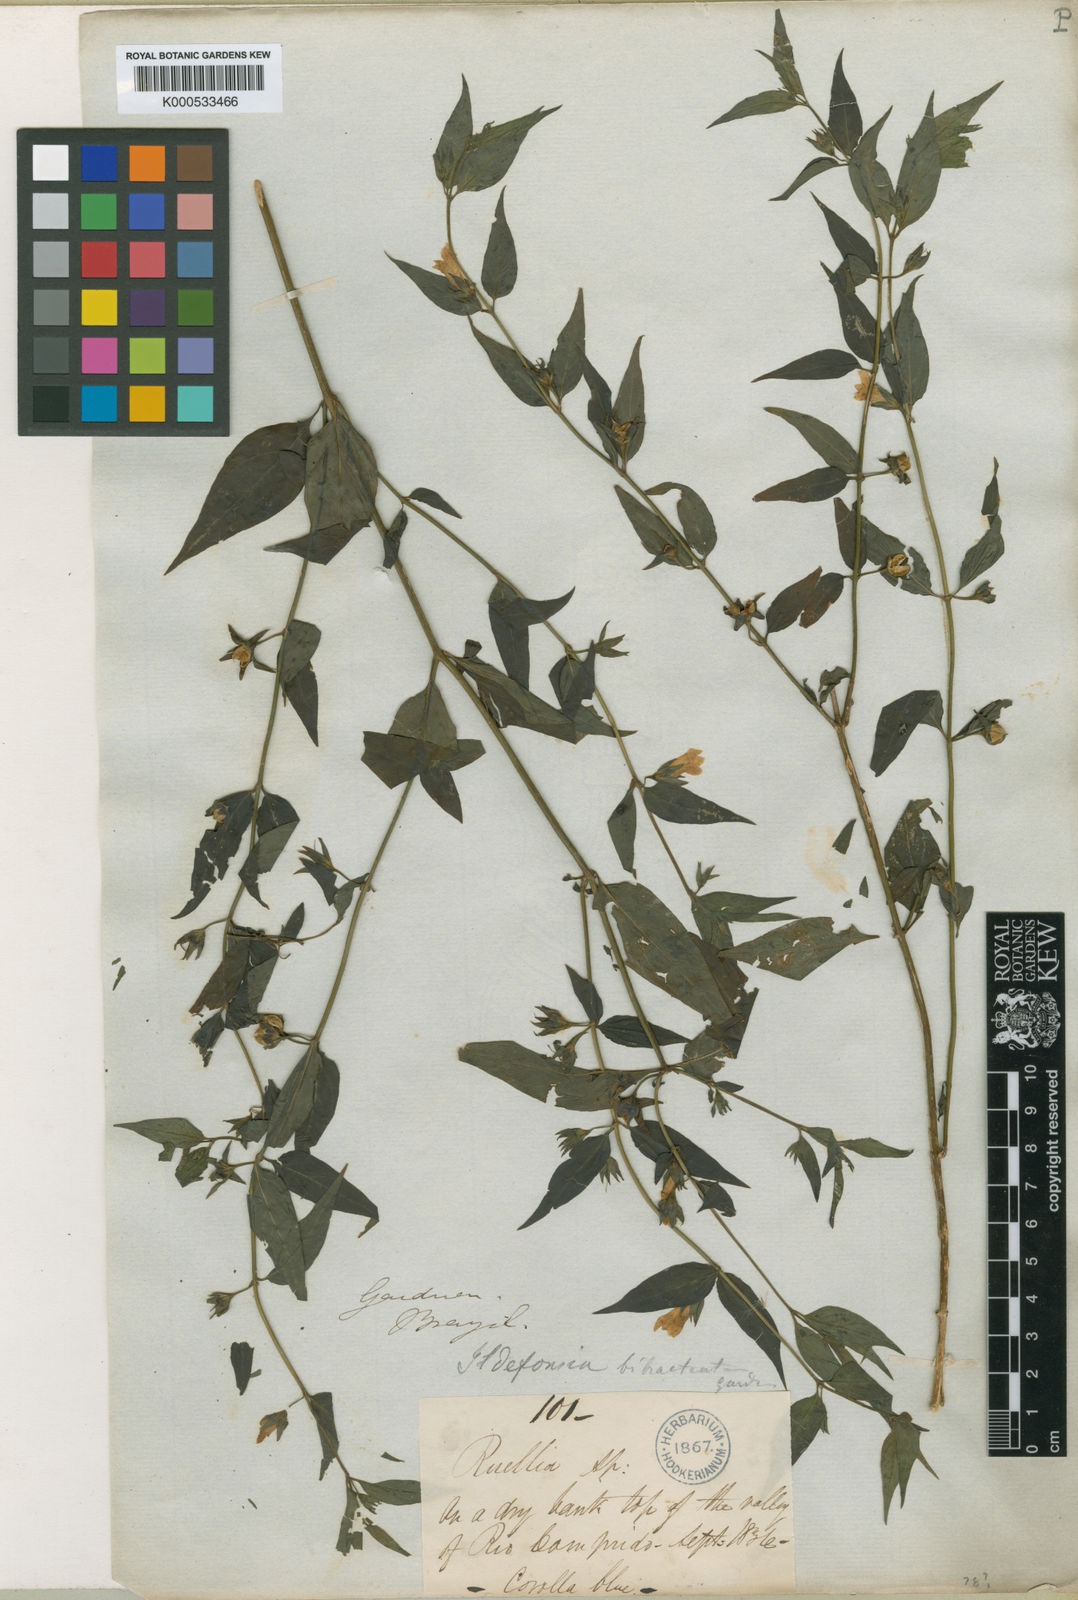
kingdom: Plantae
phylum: Tracheophyta
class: Magnoliopsida
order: Lamiales
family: Plantaginaceae
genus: Bacopa
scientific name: Bacopa
